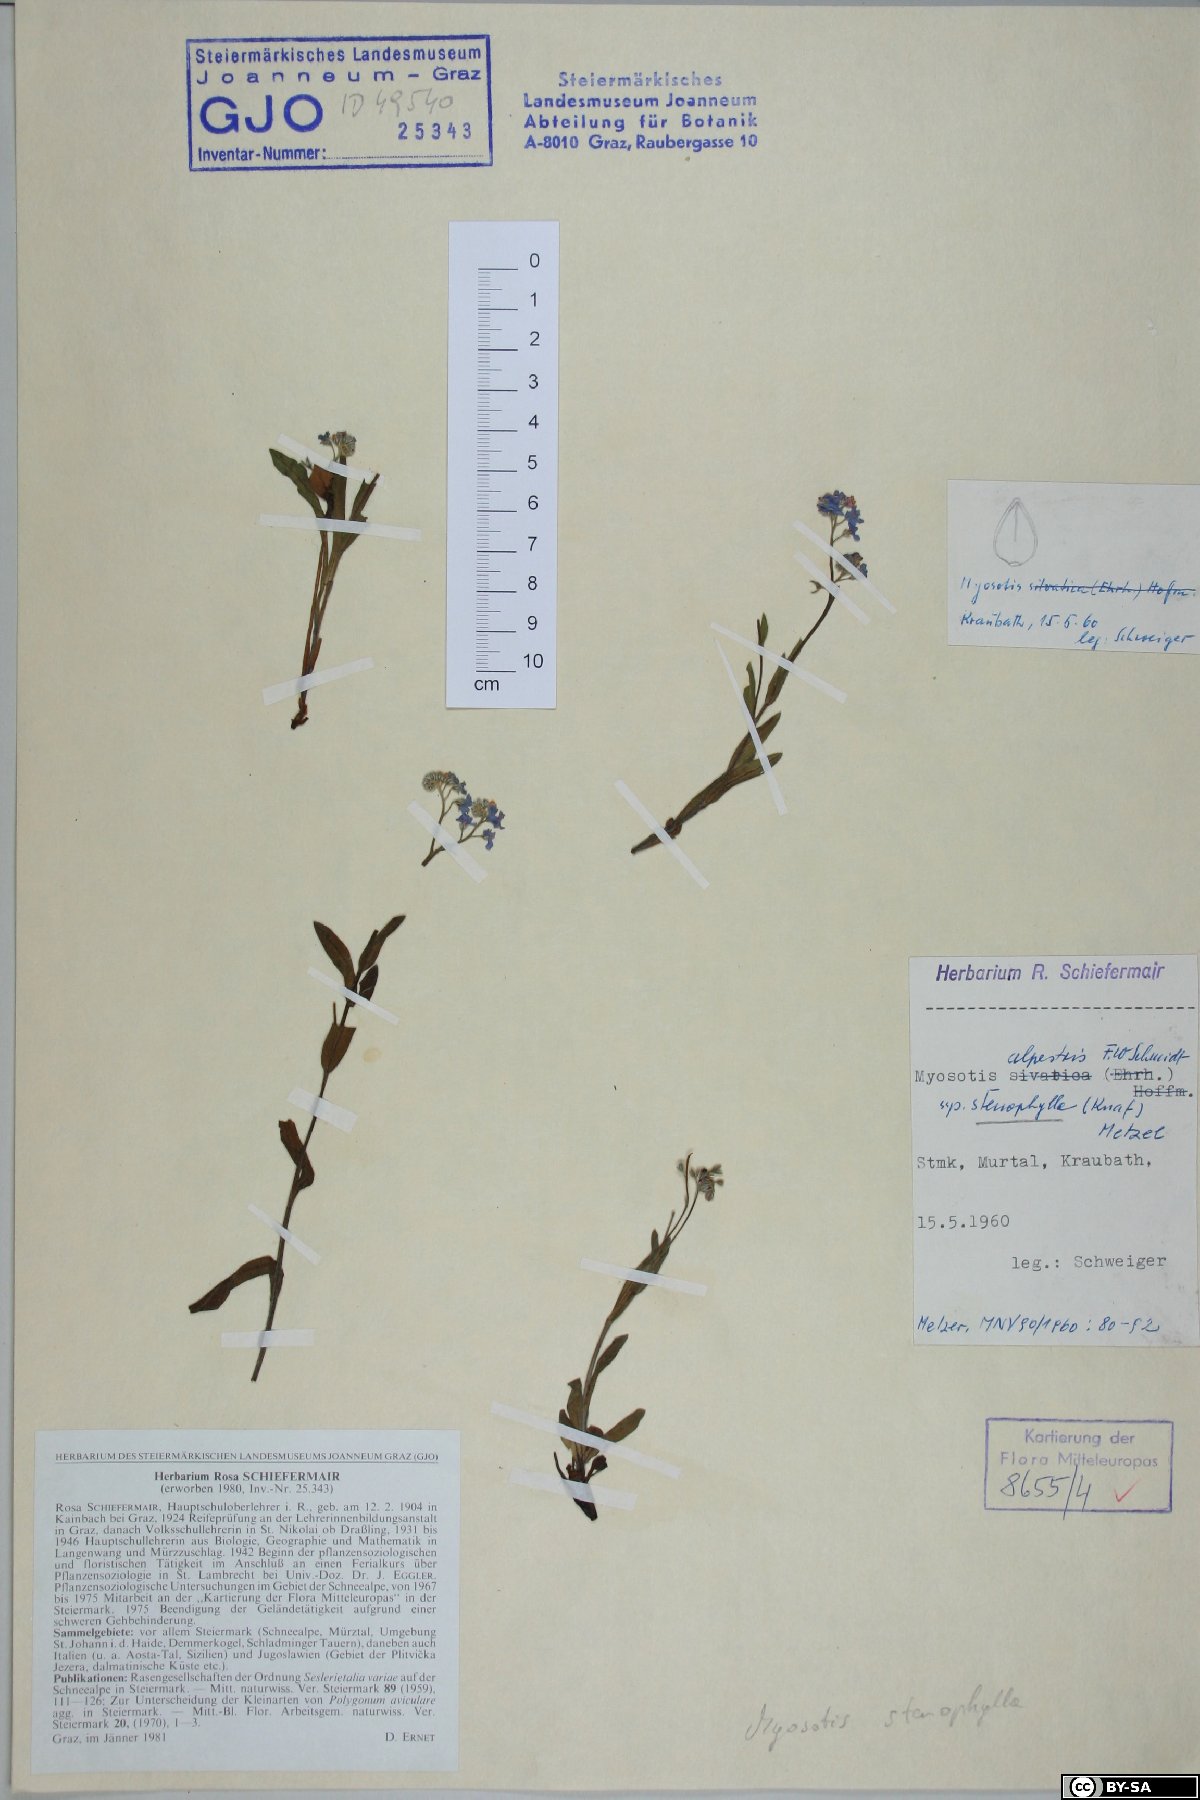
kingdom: Plantae
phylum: Tracheophyta
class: Magnoliopsida
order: Boraginales
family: Boraginaceae
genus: Myosotis
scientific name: Myosotis alpestris
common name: Alpine forget-me-not
